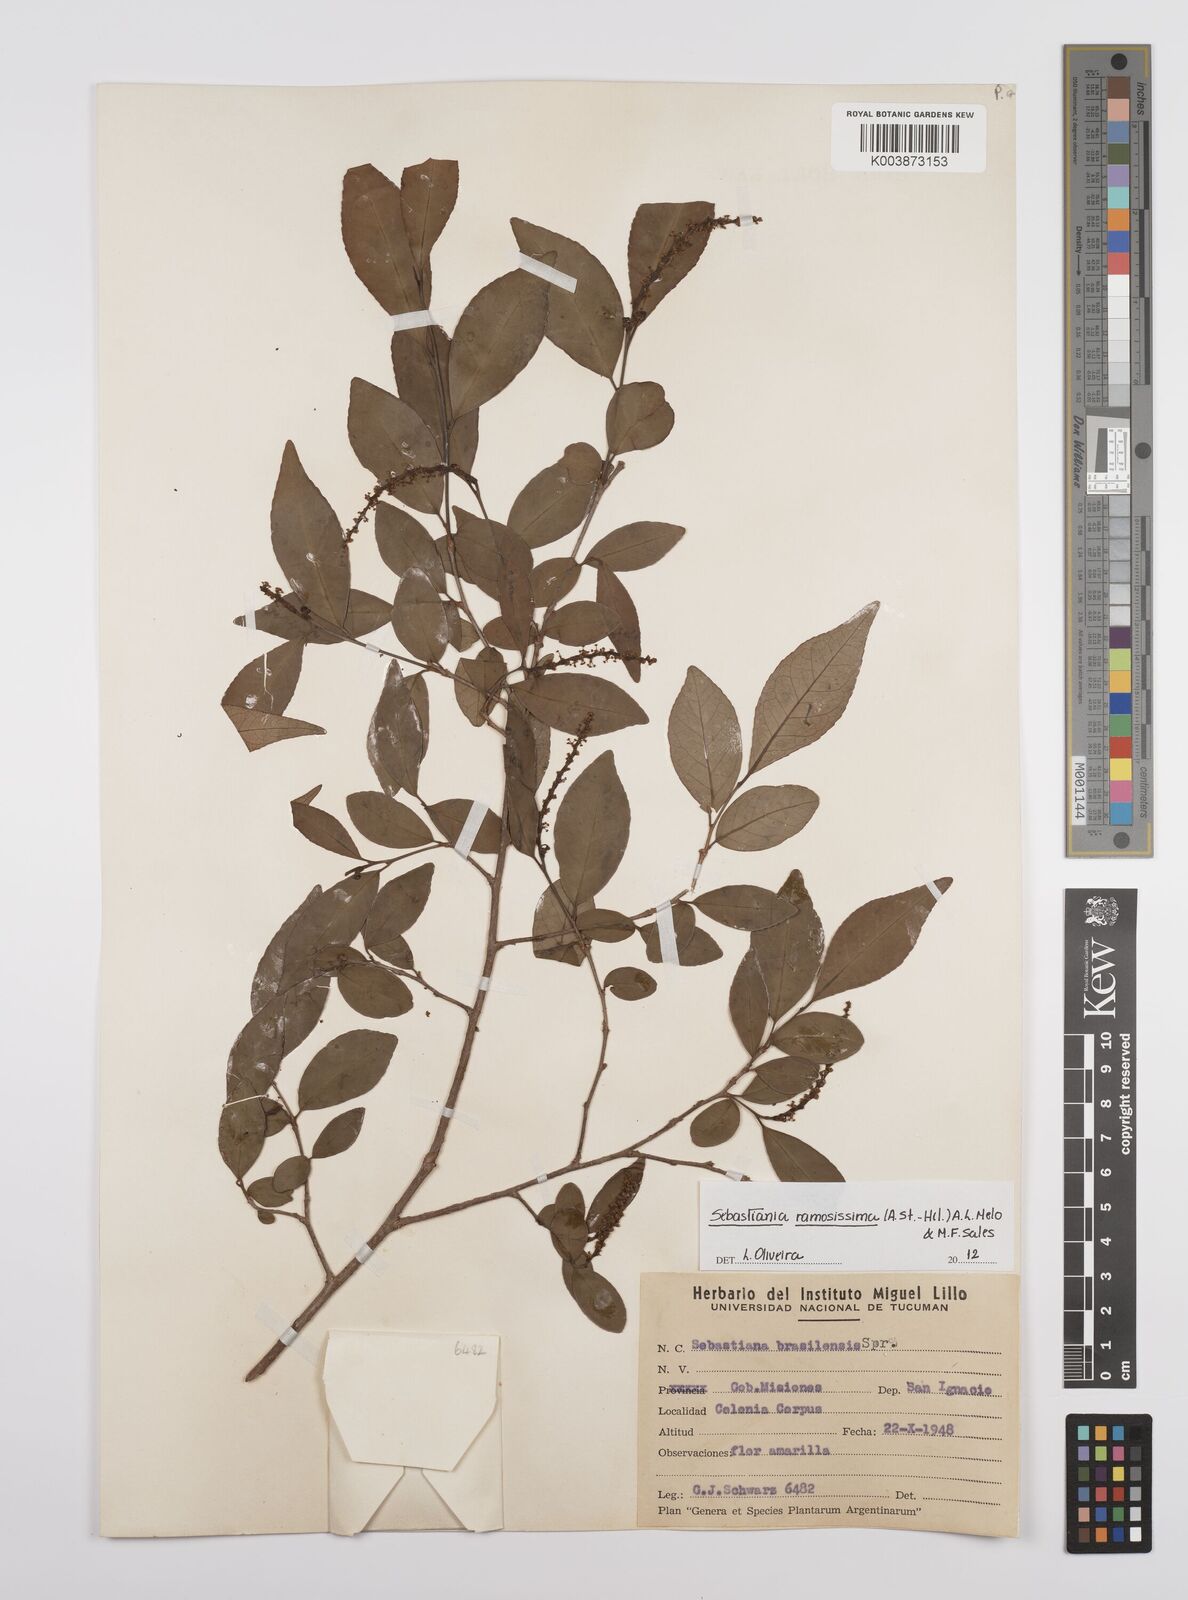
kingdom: Plantae
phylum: Tracheophyta
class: Magnoliopsida
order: Malpighiales
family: Euphorbiaceae
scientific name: Euphorbiaceae
